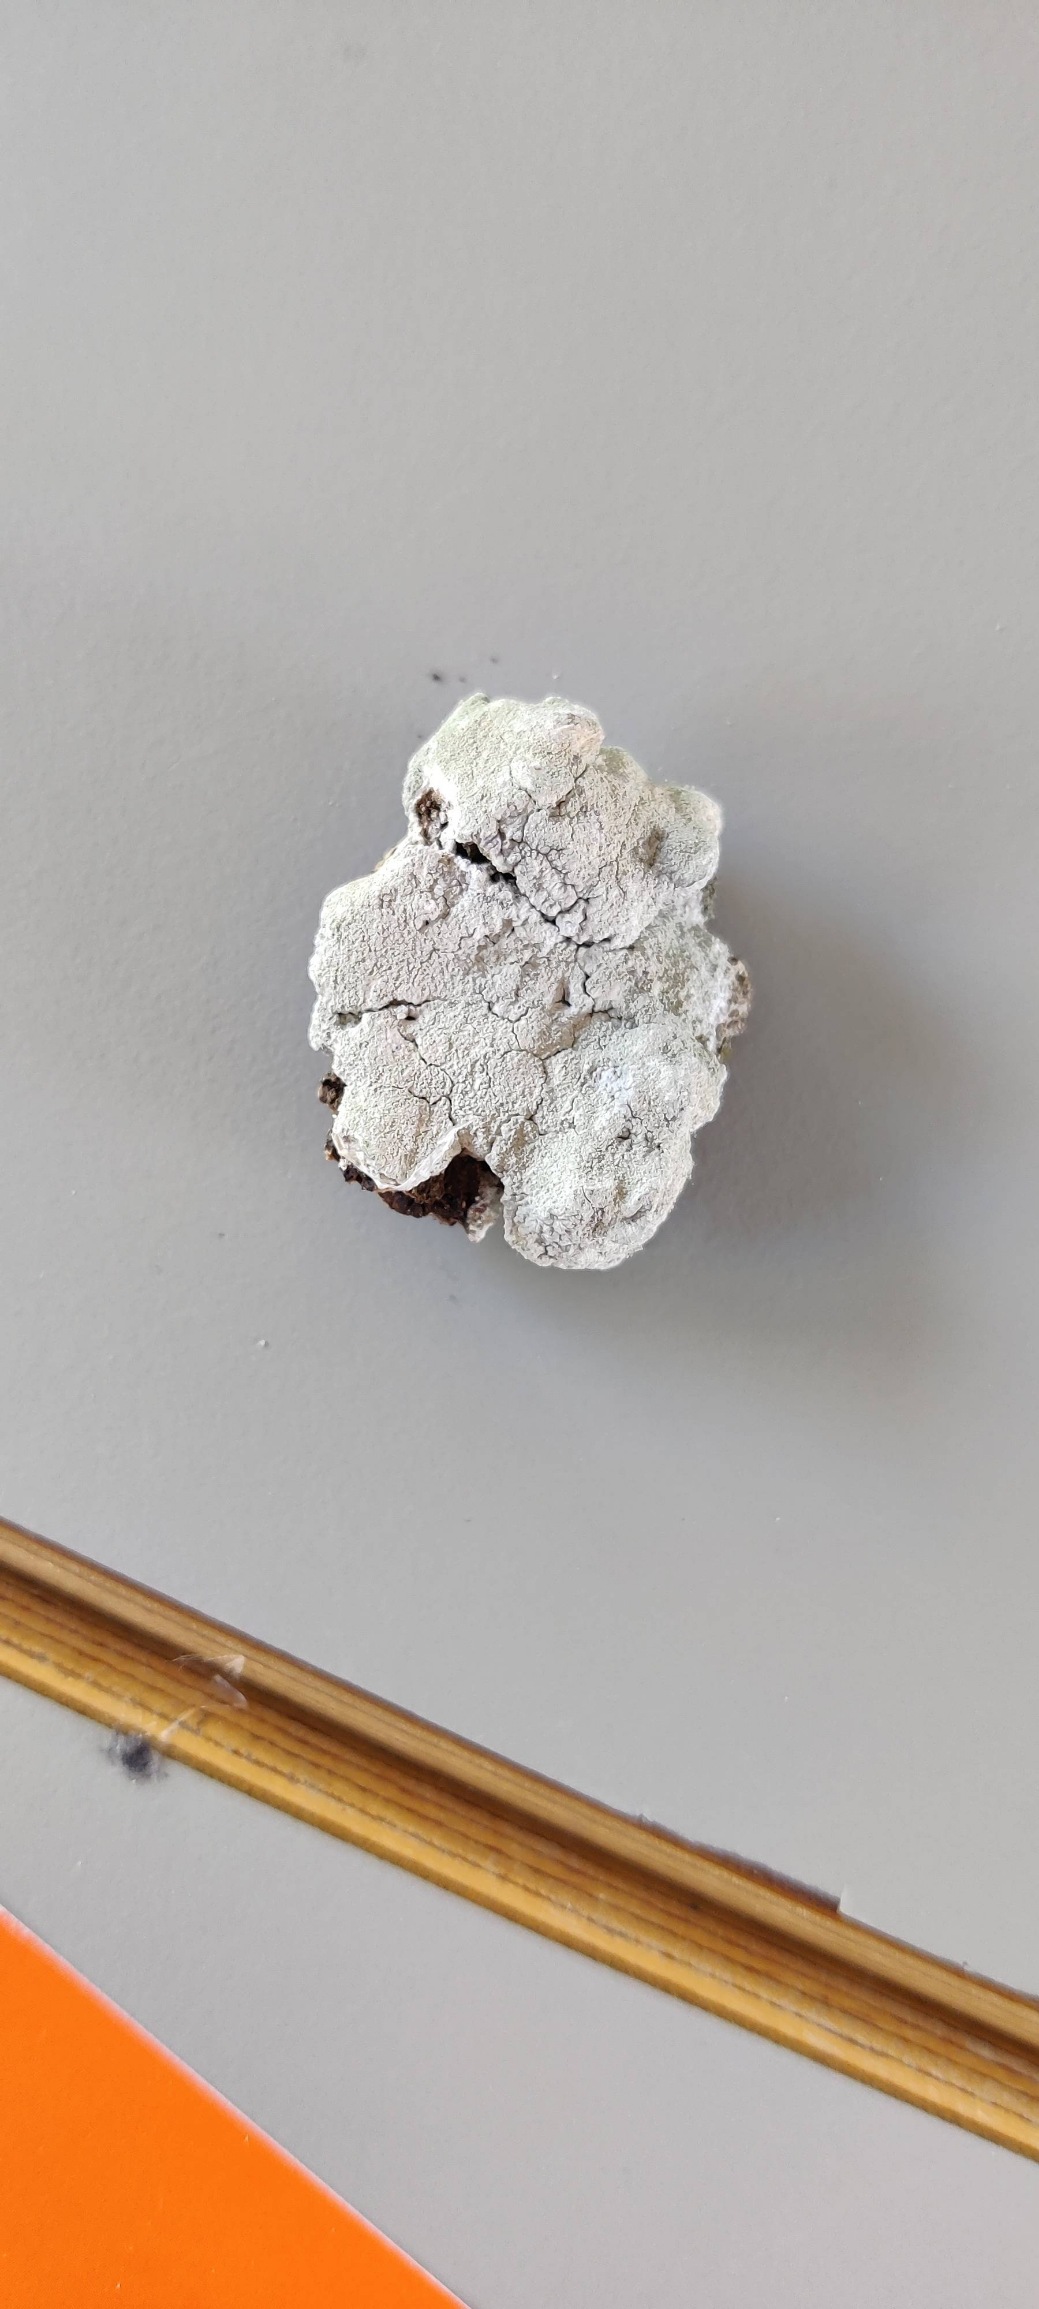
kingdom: Fungi
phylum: Ascomycota
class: Lecanoromycetes
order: Ostropales
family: Phlyctidaceae
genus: Phlyctis
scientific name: Phlyctis argena
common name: Almindelig sølvlav
